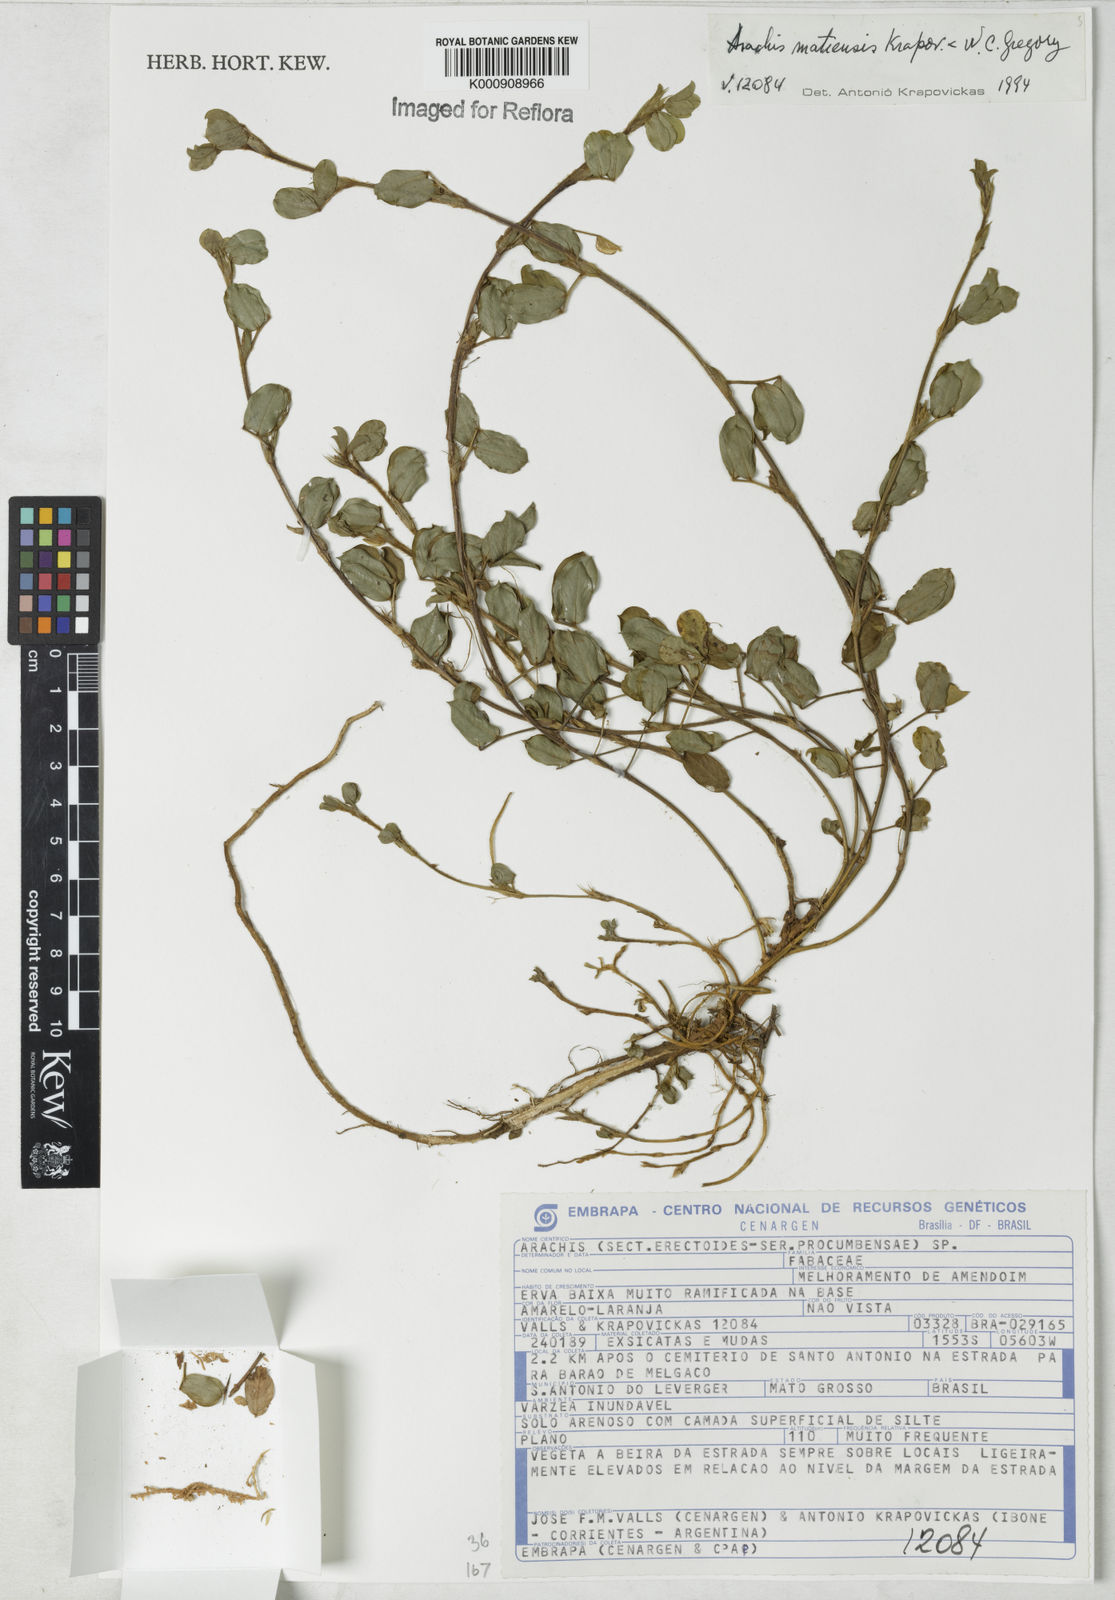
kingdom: Plantae
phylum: Tracheophyta
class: Magnoliopsida
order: Fabales
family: Fabaceae
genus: Arachis
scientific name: Arachis matiensis
